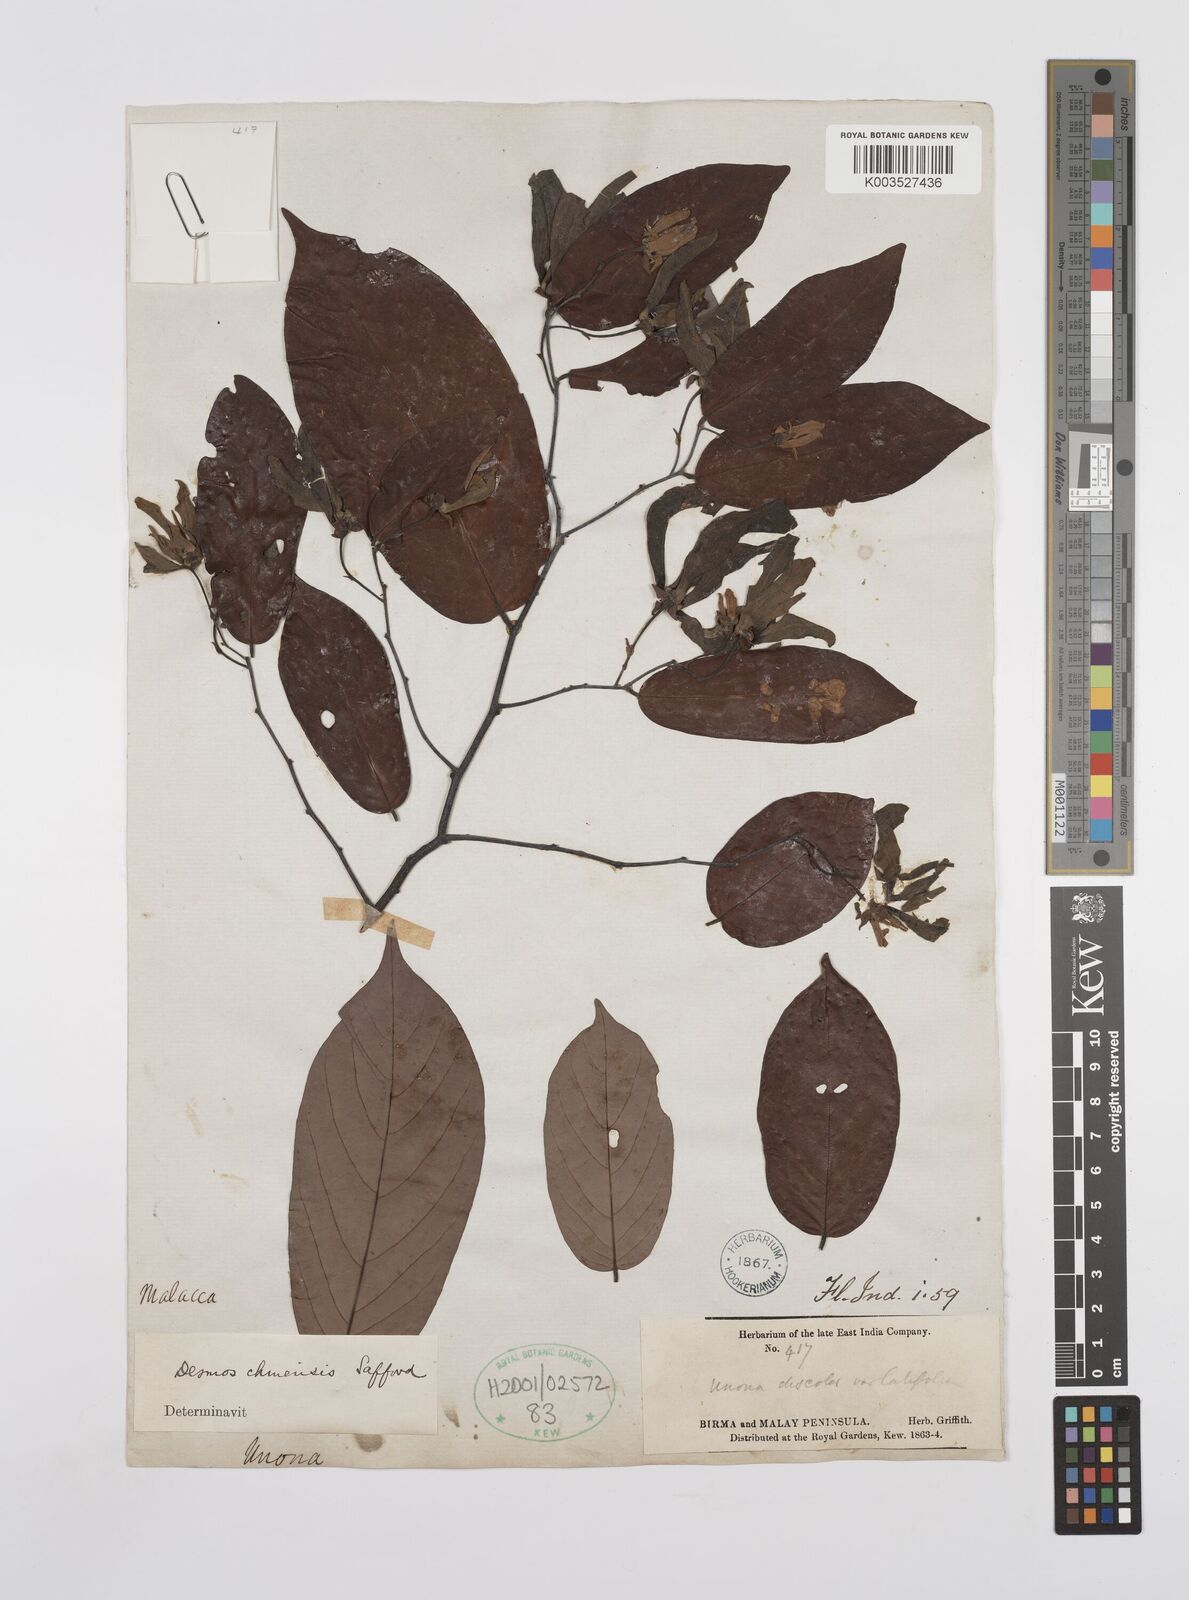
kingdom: Plantae
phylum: Tracheophyta
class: Magnoliopsida
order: Magnoliales
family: Annonaceae
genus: Desmos
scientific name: Desmos chinensis
